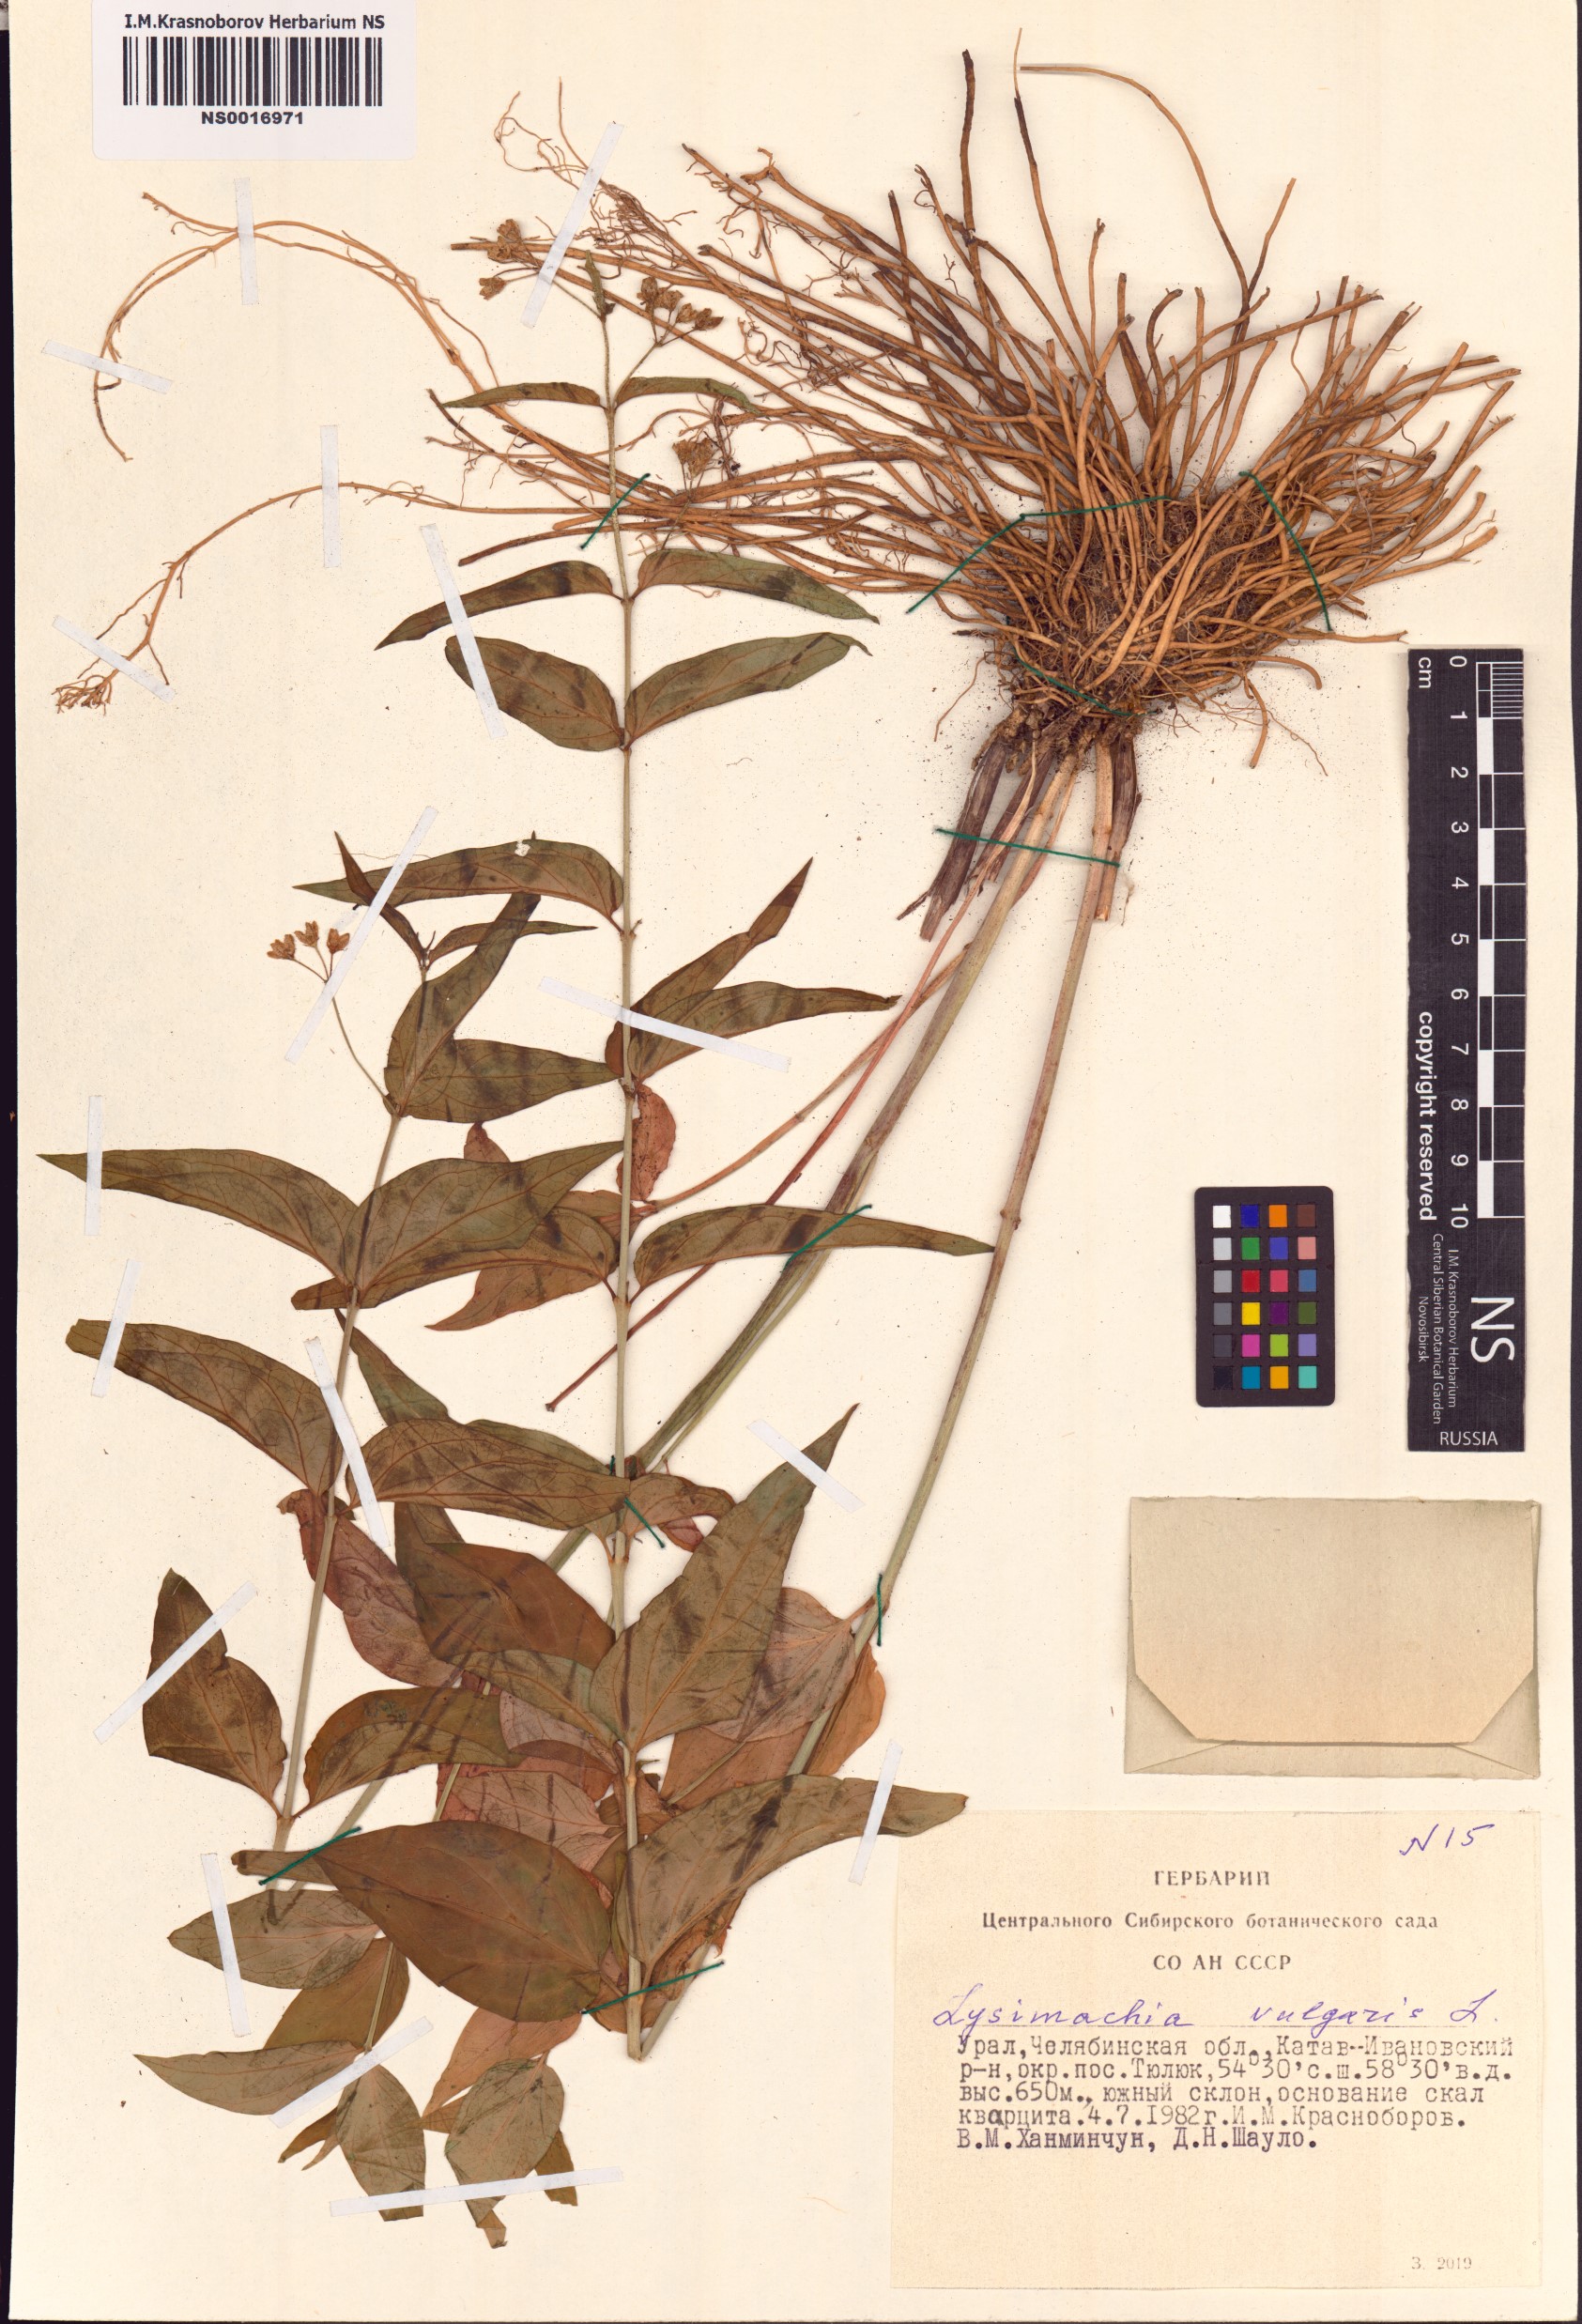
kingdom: Plantae
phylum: Tracheophyta
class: Magnoliopsida
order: Ericales
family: Primulaceae
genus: Lysimachia
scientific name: Lysimachia vulgaris
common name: Yellow loosestrife
